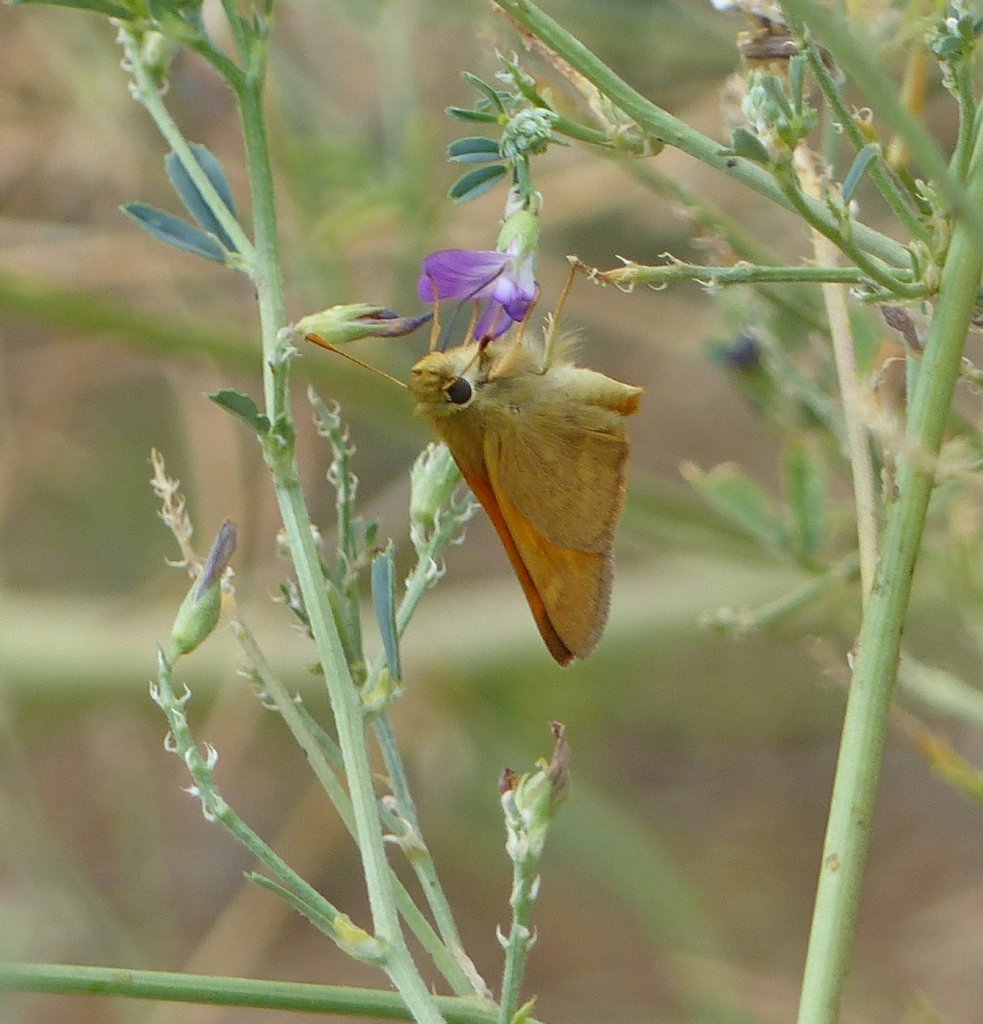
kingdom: Animalia
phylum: Arthropoda
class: Insecta
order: Lepidoptera
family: Hesperiidae
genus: Ochlodes
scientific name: Ochlodes sylvanoides
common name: Woodland Skipper
